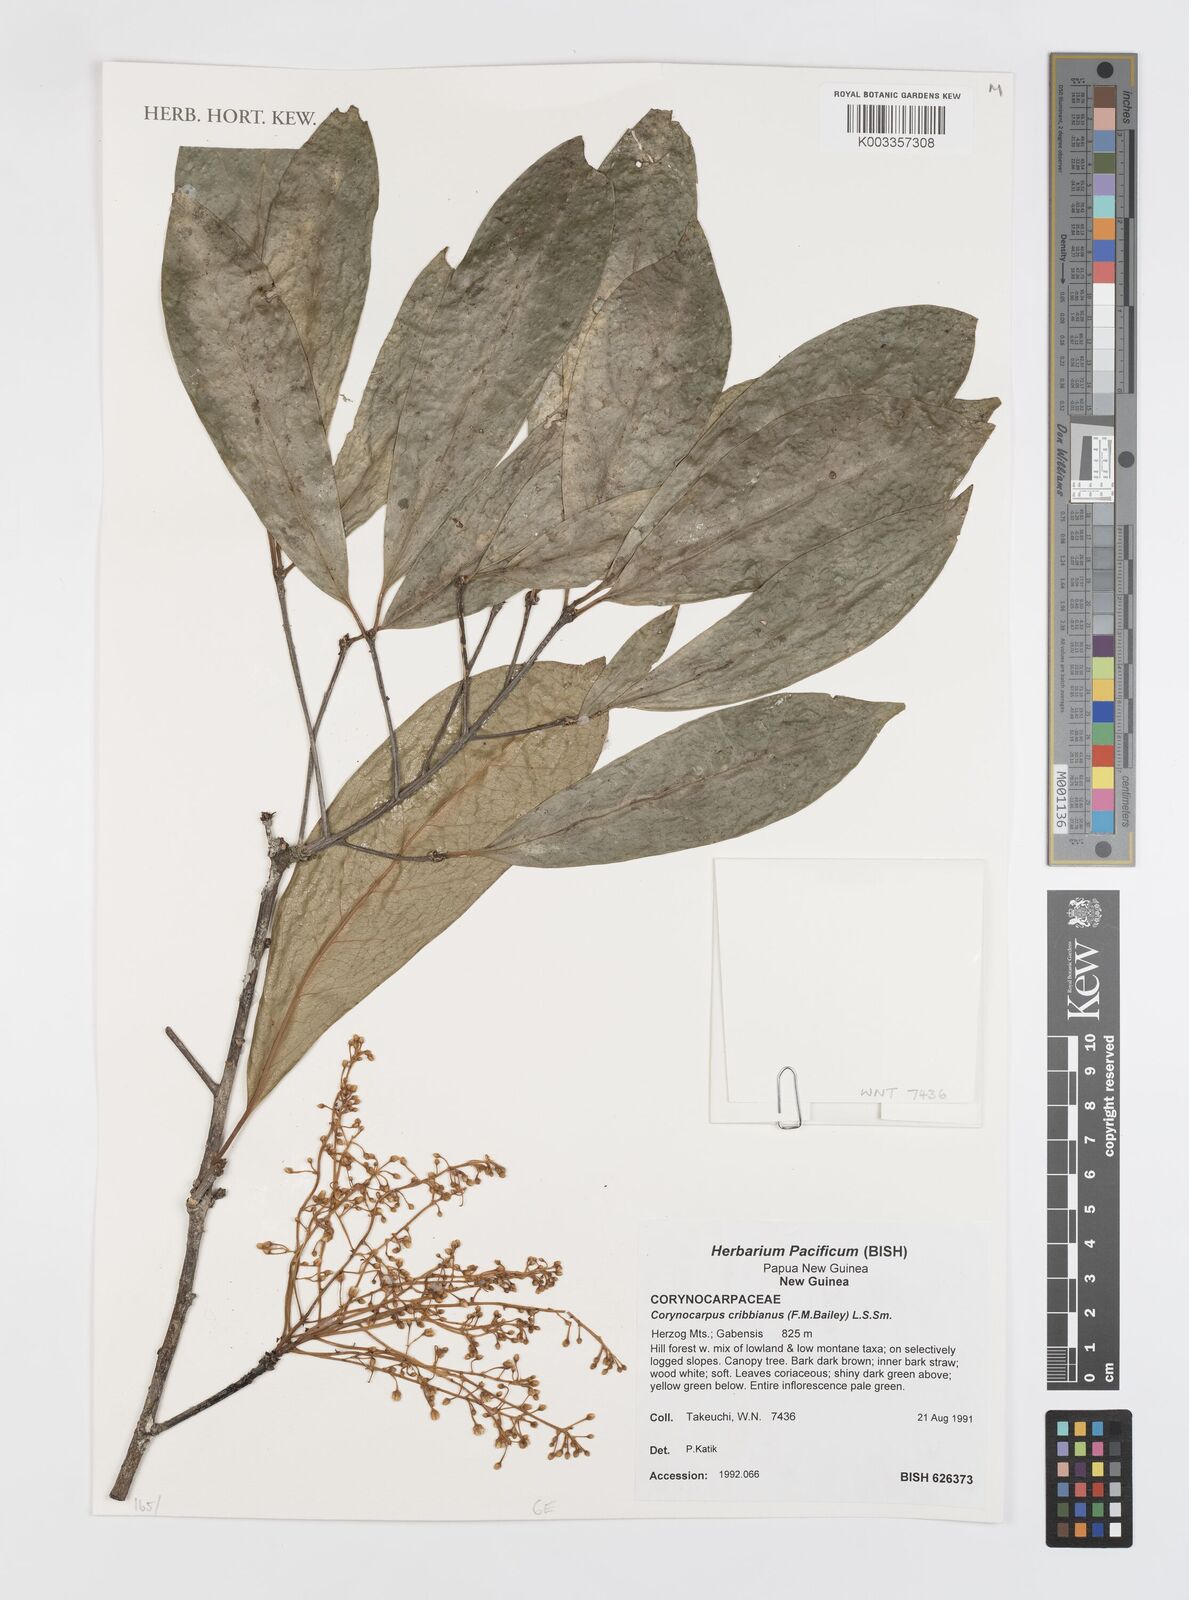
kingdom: Plantae
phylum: Tracheophyta
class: Magnoliopsida
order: Cucurbitales
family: Corynocarpaceae
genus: Corynocarpus
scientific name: Corynocarpus cribbianus
